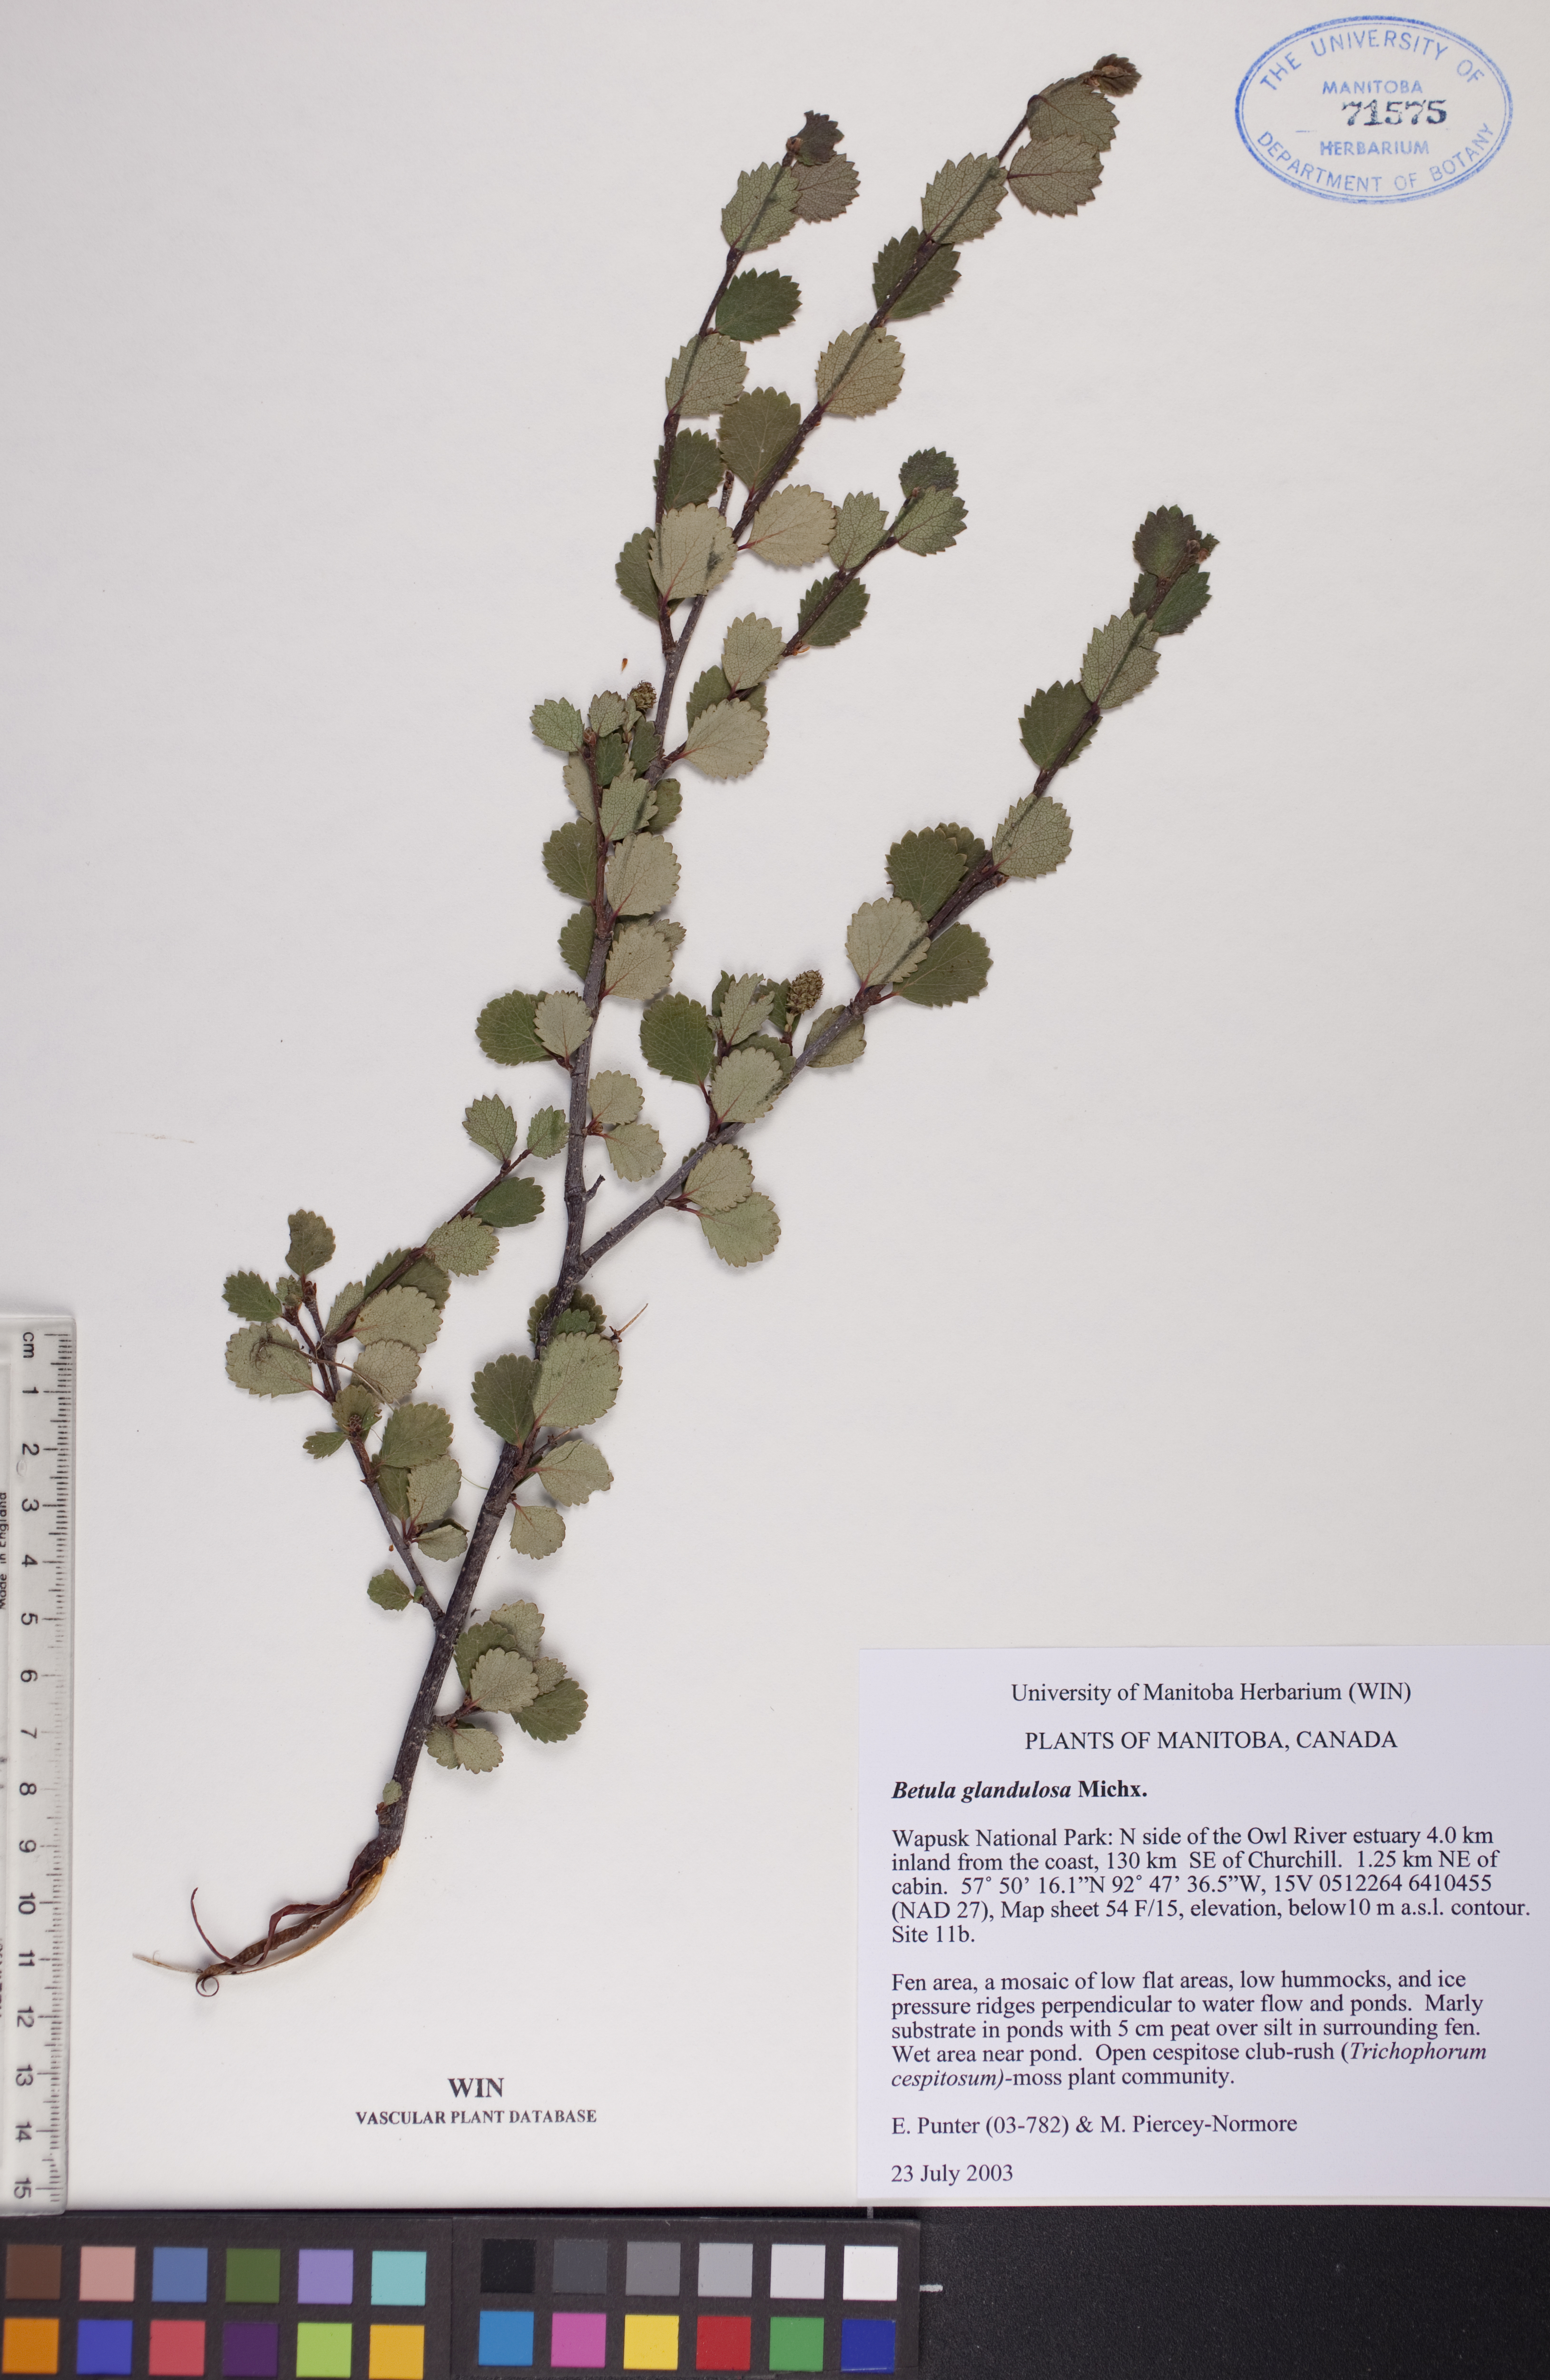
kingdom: Plantae
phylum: Tracheophyta
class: Magnoliopsida
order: Fagales
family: Betulaceae
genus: Betula
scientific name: Betula glandulosa
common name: Dwarf birch
